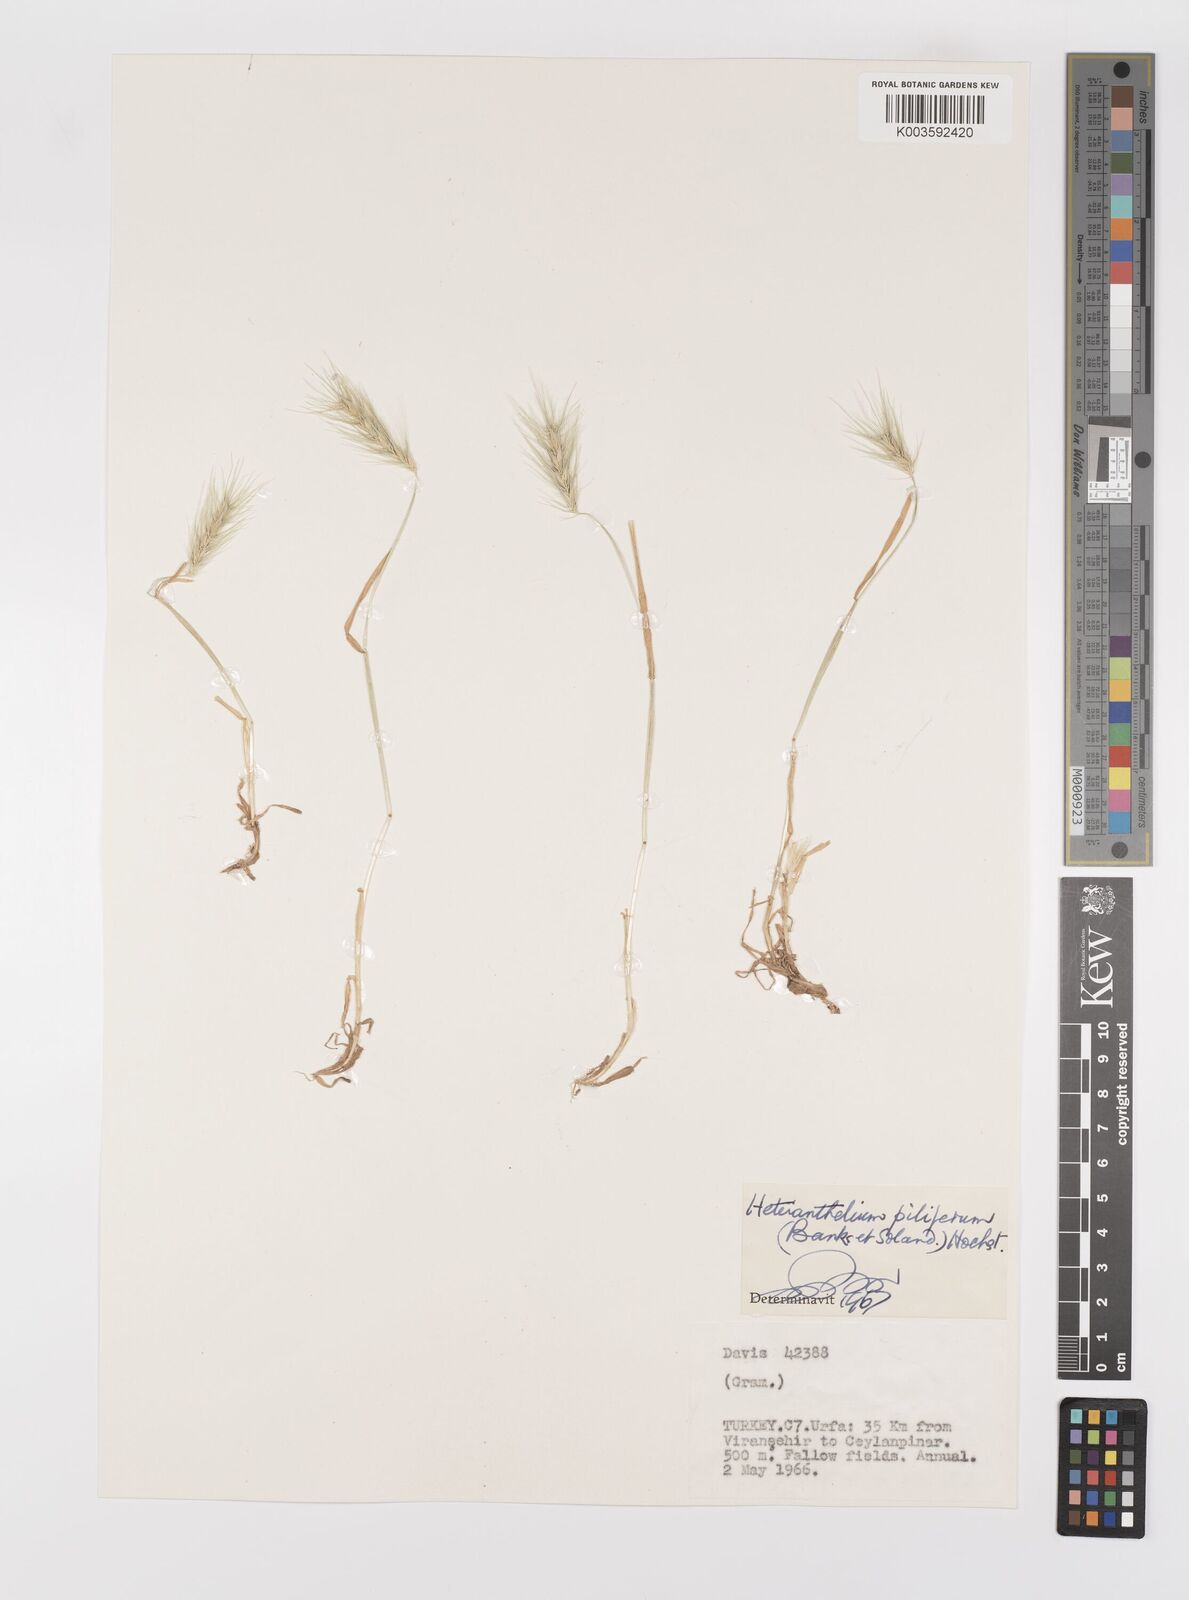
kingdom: Plantae
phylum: Tracheophyta
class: Liliopsida
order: Poales
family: Poaceae
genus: Heteranthelium
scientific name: Heteranthelium piliferum
